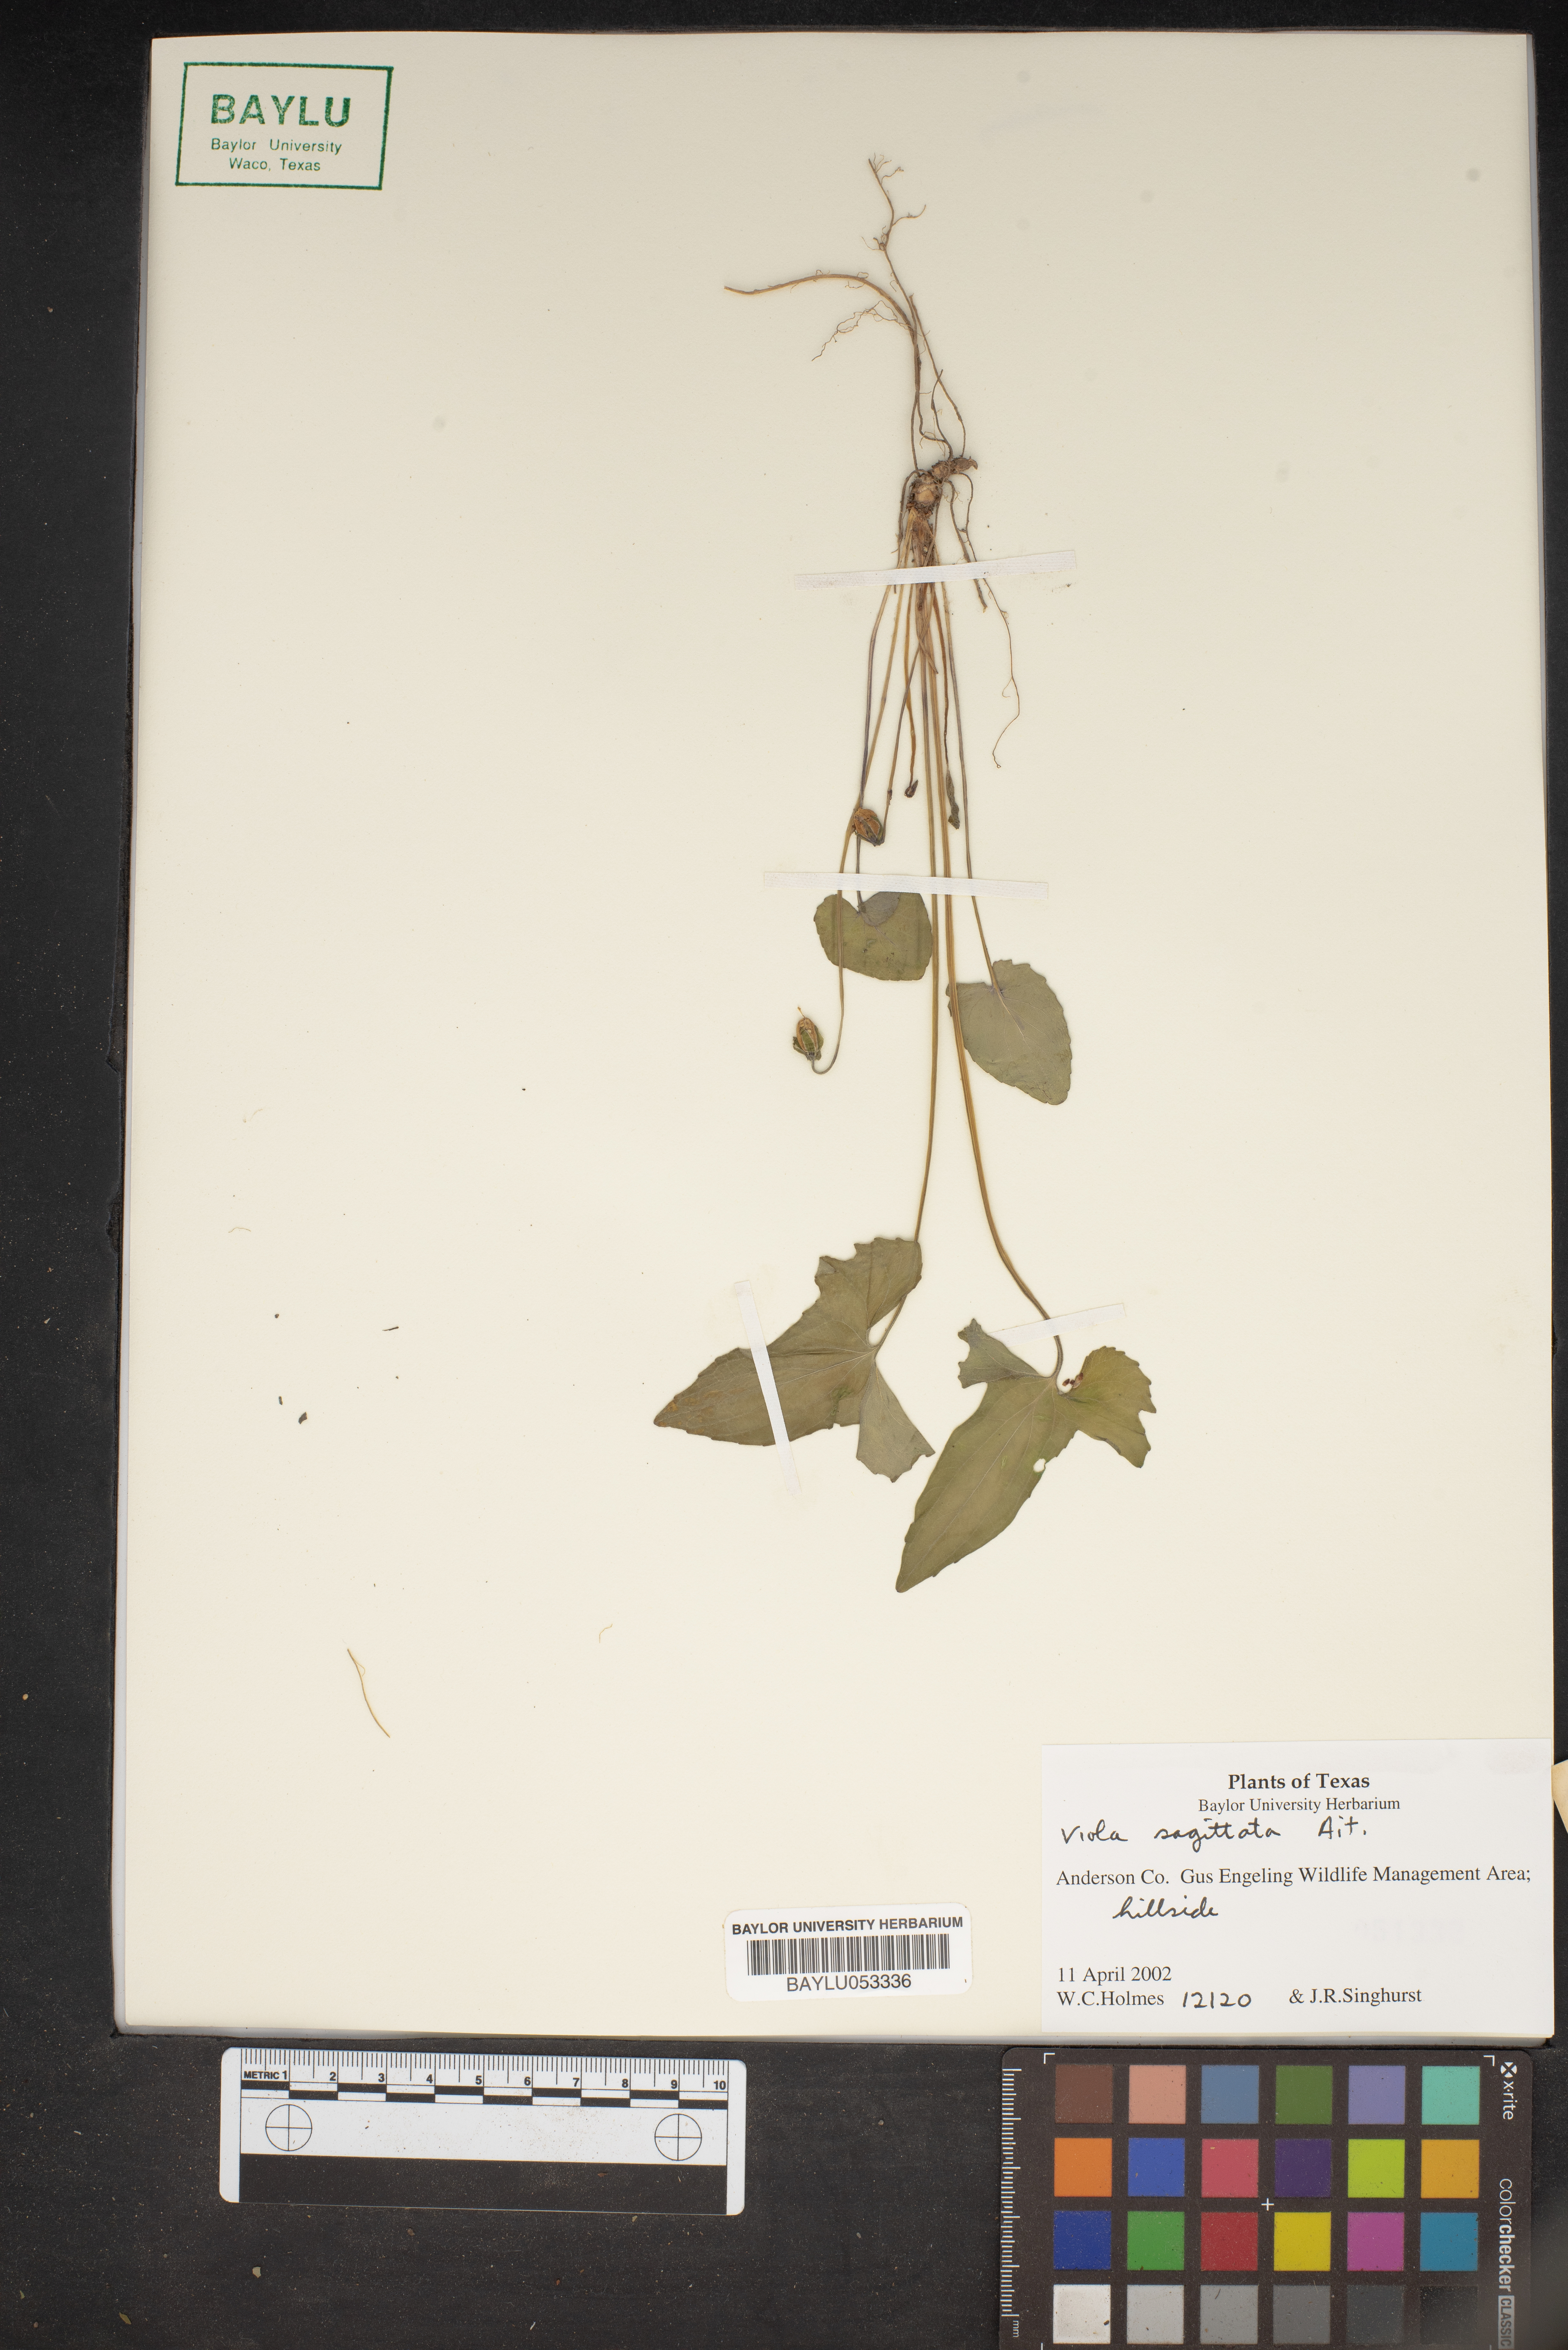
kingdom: Plantae
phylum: Tracheophyta
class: Magnoliopsida
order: Malpighiales
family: Violaceae
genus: Viola
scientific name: Viola sagittata
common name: Arrowhead violet
